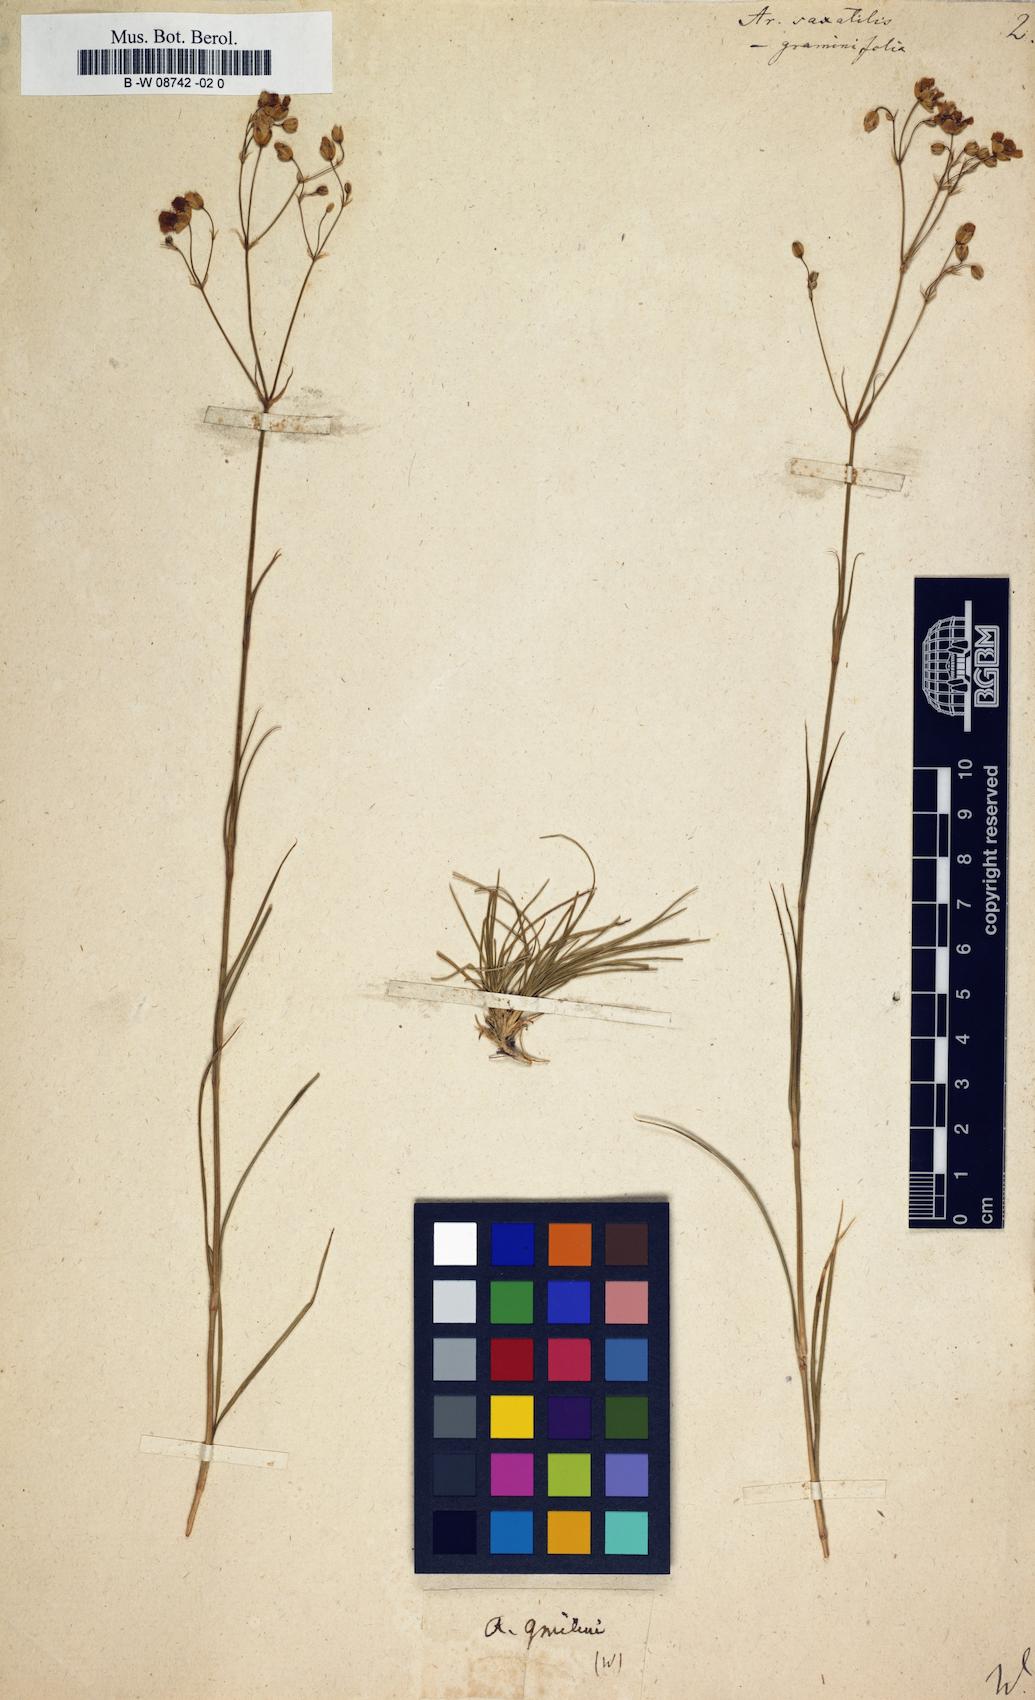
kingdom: Plantae
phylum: Tracheophyta
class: Magnoliopsida
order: Caryophyllales
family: Caryophyllaceae
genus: Eremogone
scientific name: Eremogone saxatilis
